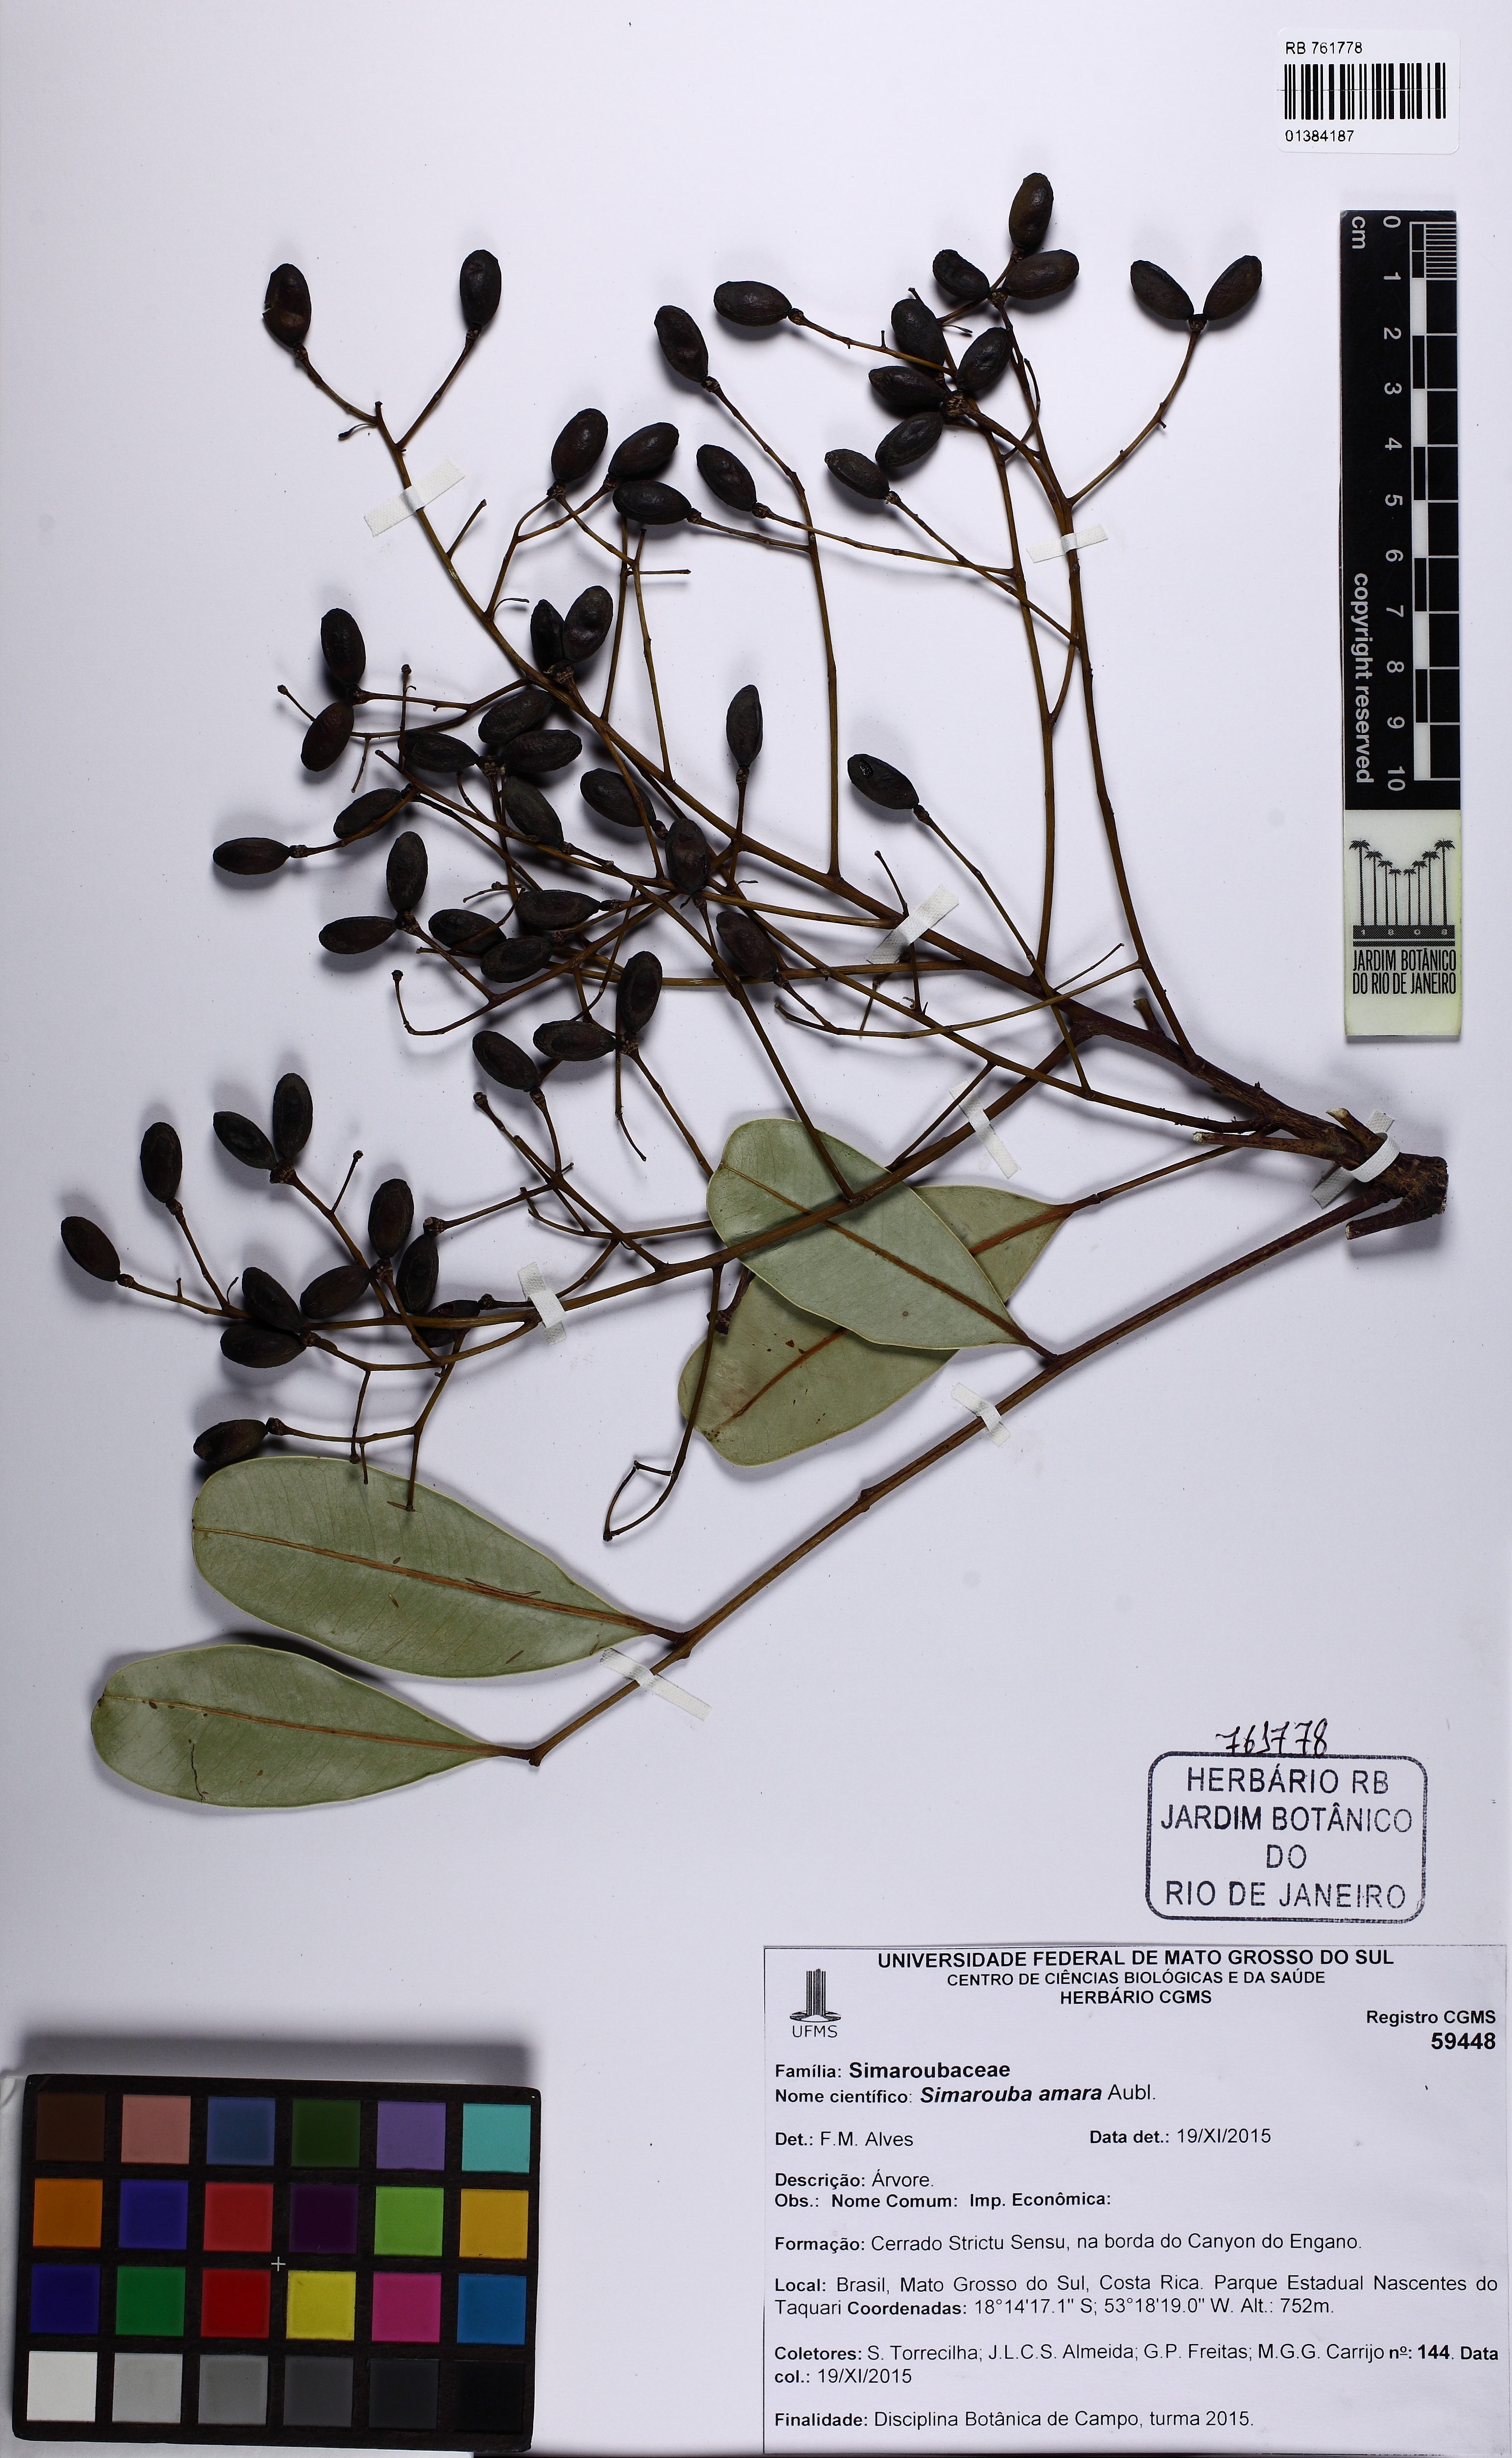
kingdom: Plantae
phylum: Tracheophyta
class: Magnoliopsida
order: Sapindales
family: Simaroubaceae
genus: Simarouba
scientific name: Simarouba amara
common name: Bitterwood
